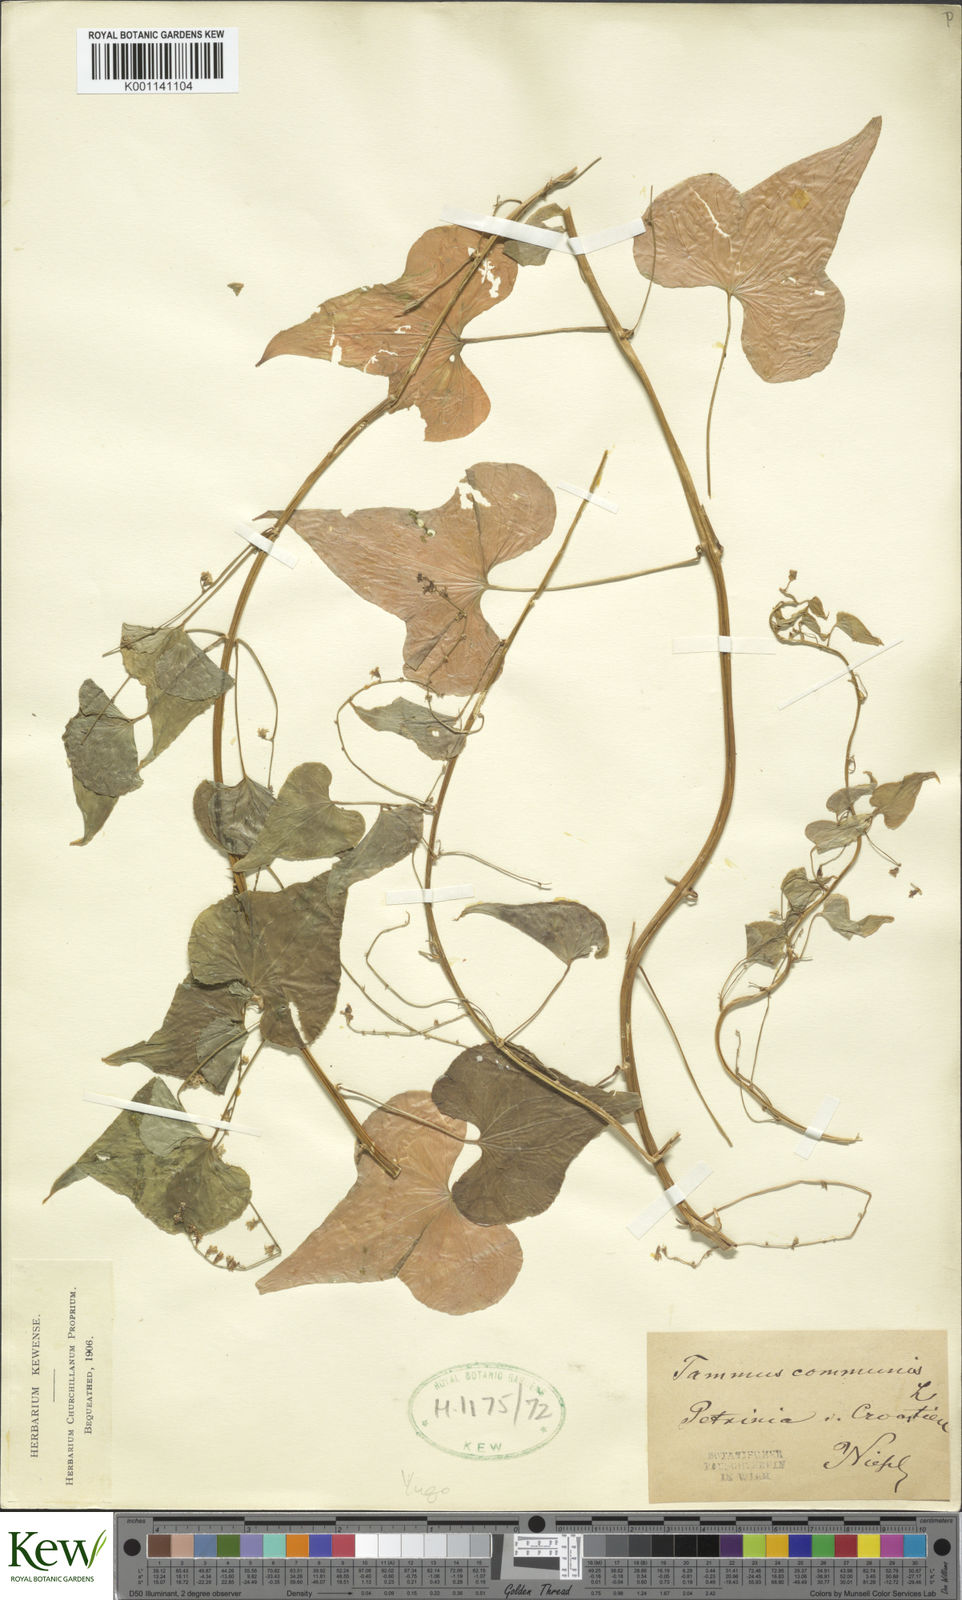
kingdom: Plantae
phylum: Tracheophyta
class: Liliopsida
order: Dioscoreales
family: Dioscoreaceae
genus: Dioscorea
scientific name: Dioscorea communis
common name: Black-bindweed
